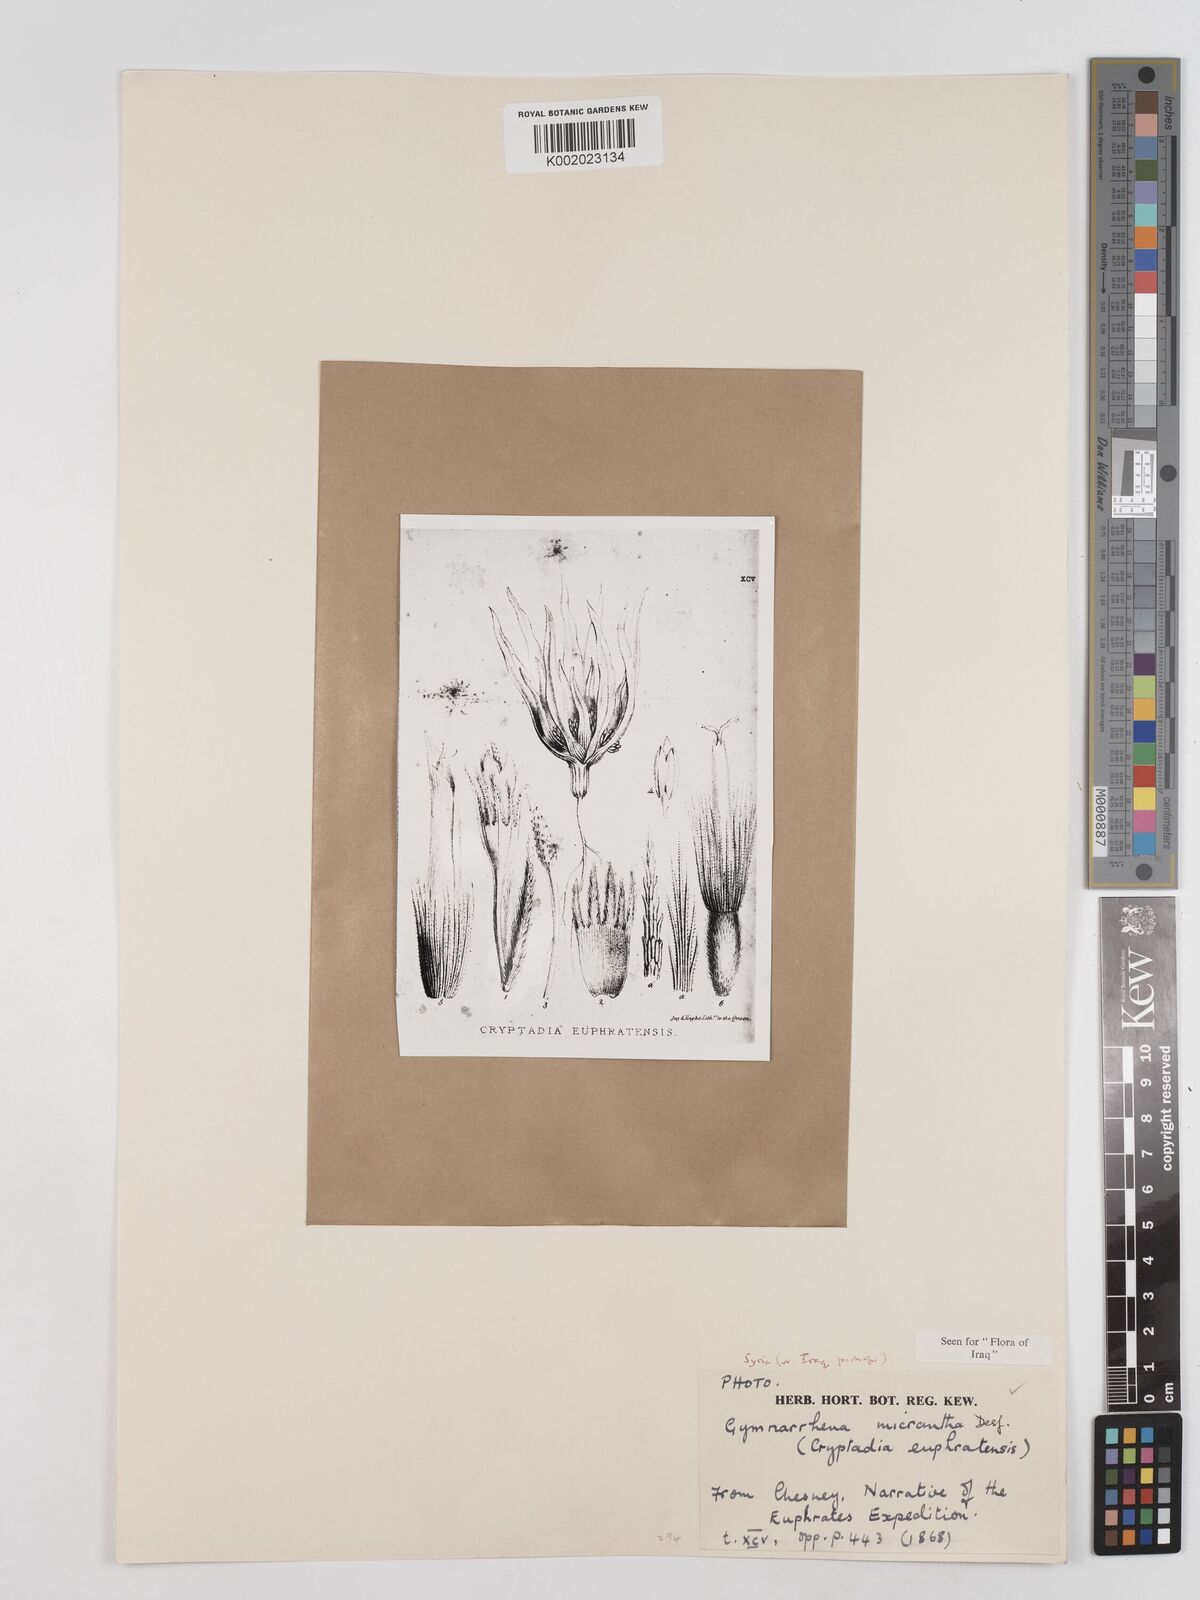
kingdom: Plantae
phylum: Tracheophyta
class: Magnoliopsida
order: Asterales
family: Asteraceae
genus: Gymnarrhena
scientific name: Gymnarrhena micrantha
